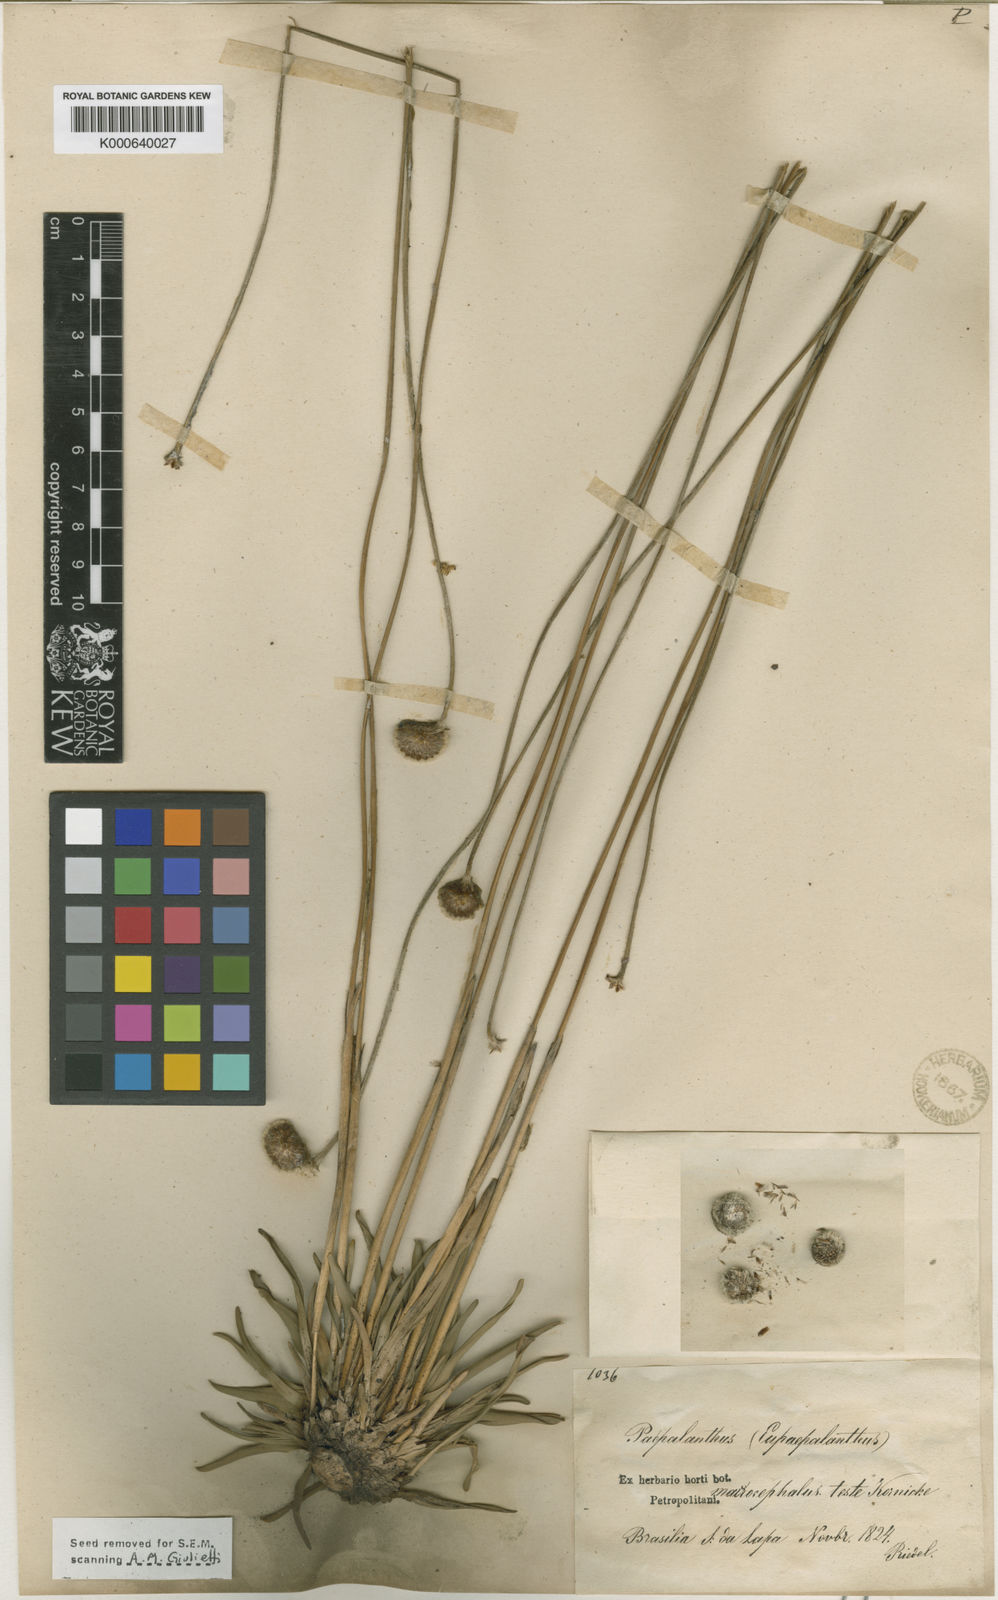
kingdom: Plantae
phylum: Tracheophyta
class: Liliopsida
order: Poales
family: Eriocaulaceae
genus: Paepalanthus
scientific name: Paepalanthus
